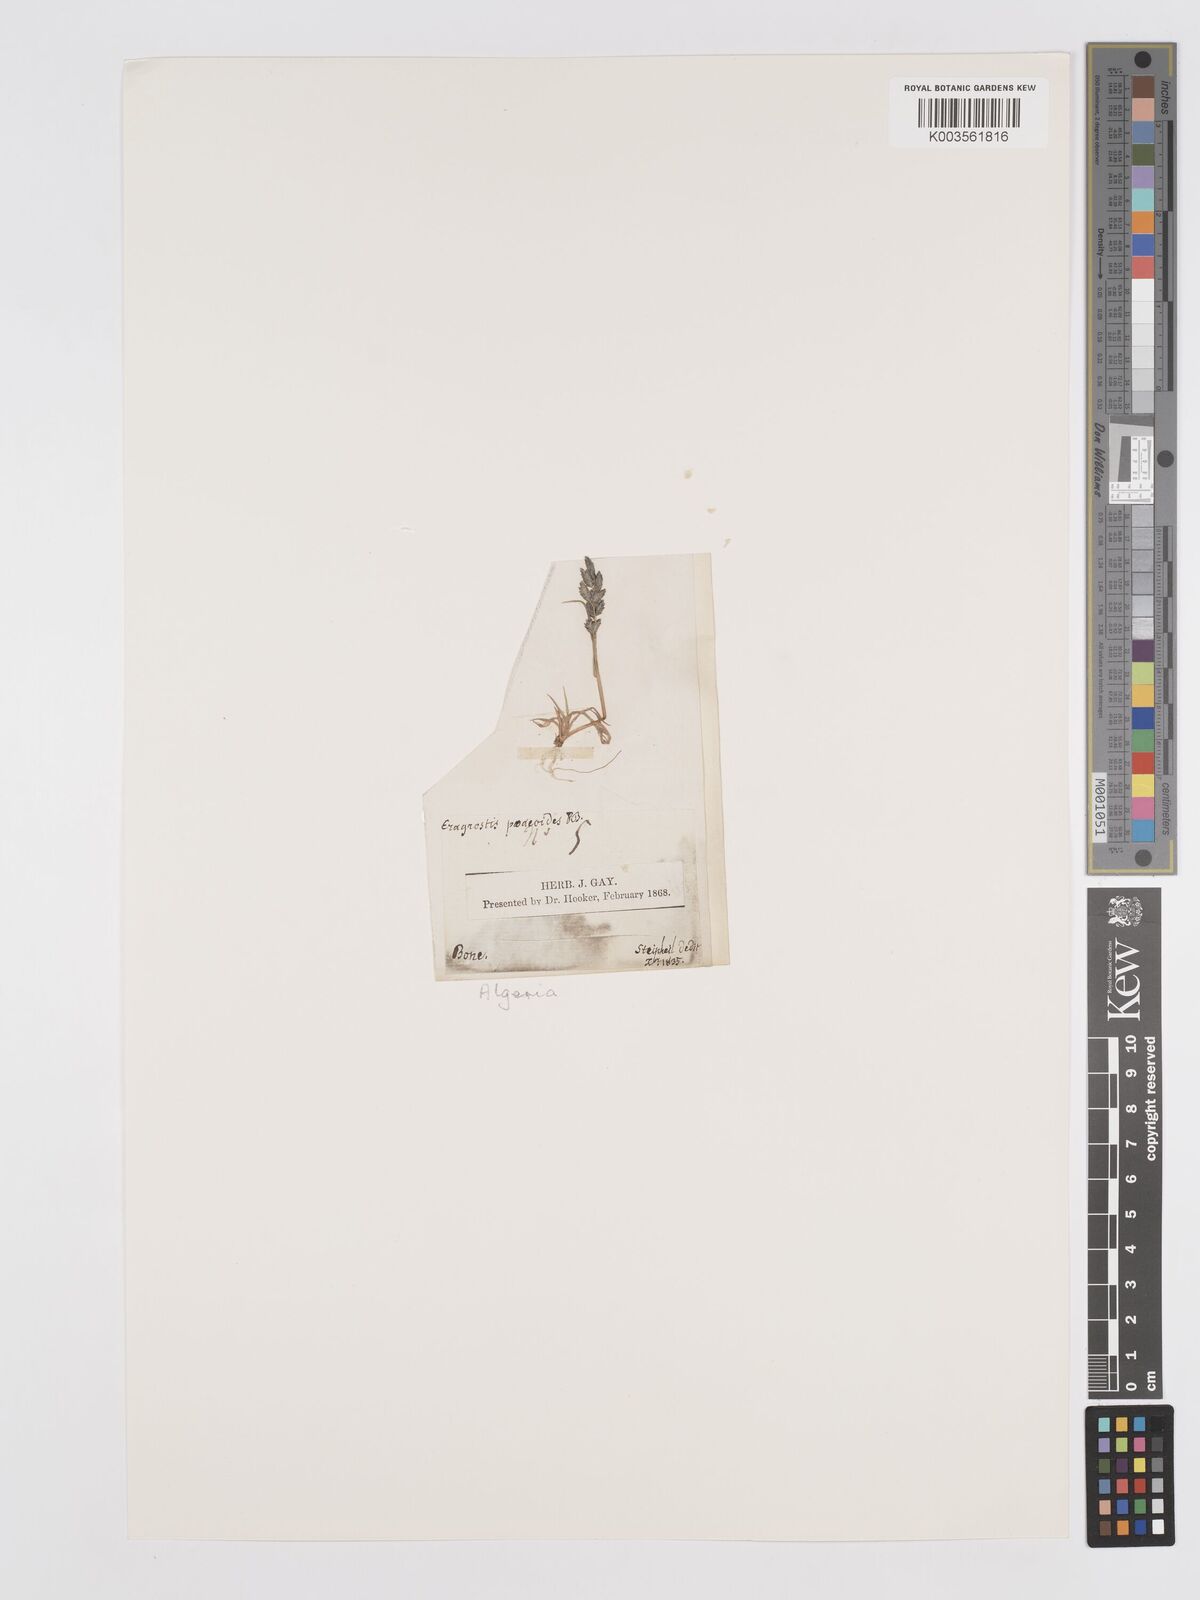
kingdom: Plantae
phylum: Tracheophyta
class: Liliopsida
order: Poales
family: Poaceae
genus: Eragrostis
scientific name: Eragrostis minor
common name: Small love-grass
